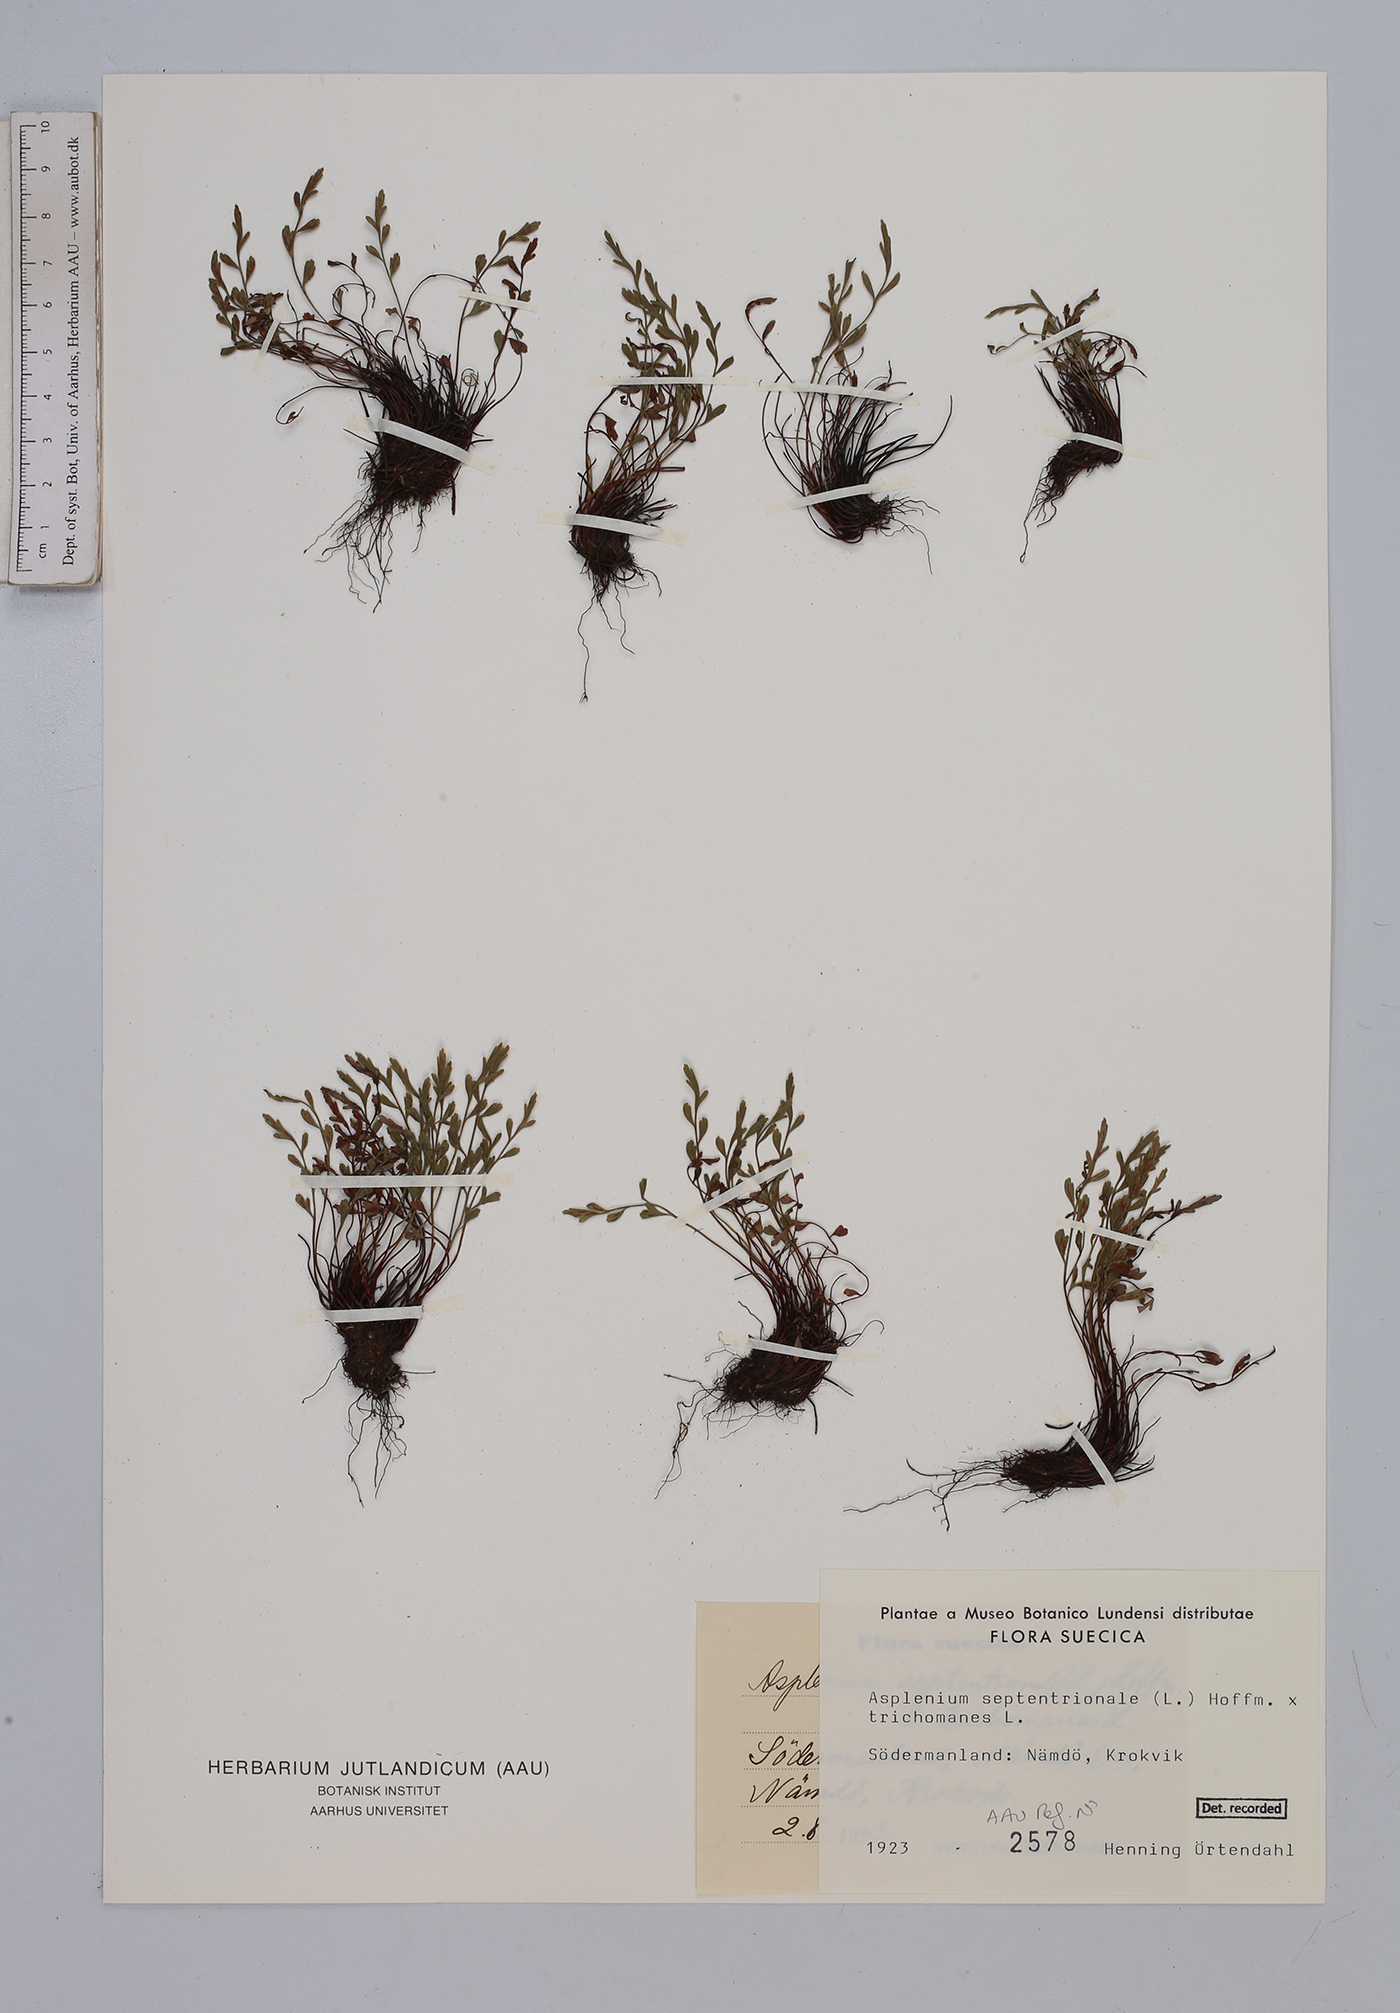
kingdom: Plantae
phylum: Tracheophyta
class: Polypodiopsida
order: Polypodiales
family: Aspleniaceae
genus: Asplenium
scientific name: Asplenium
